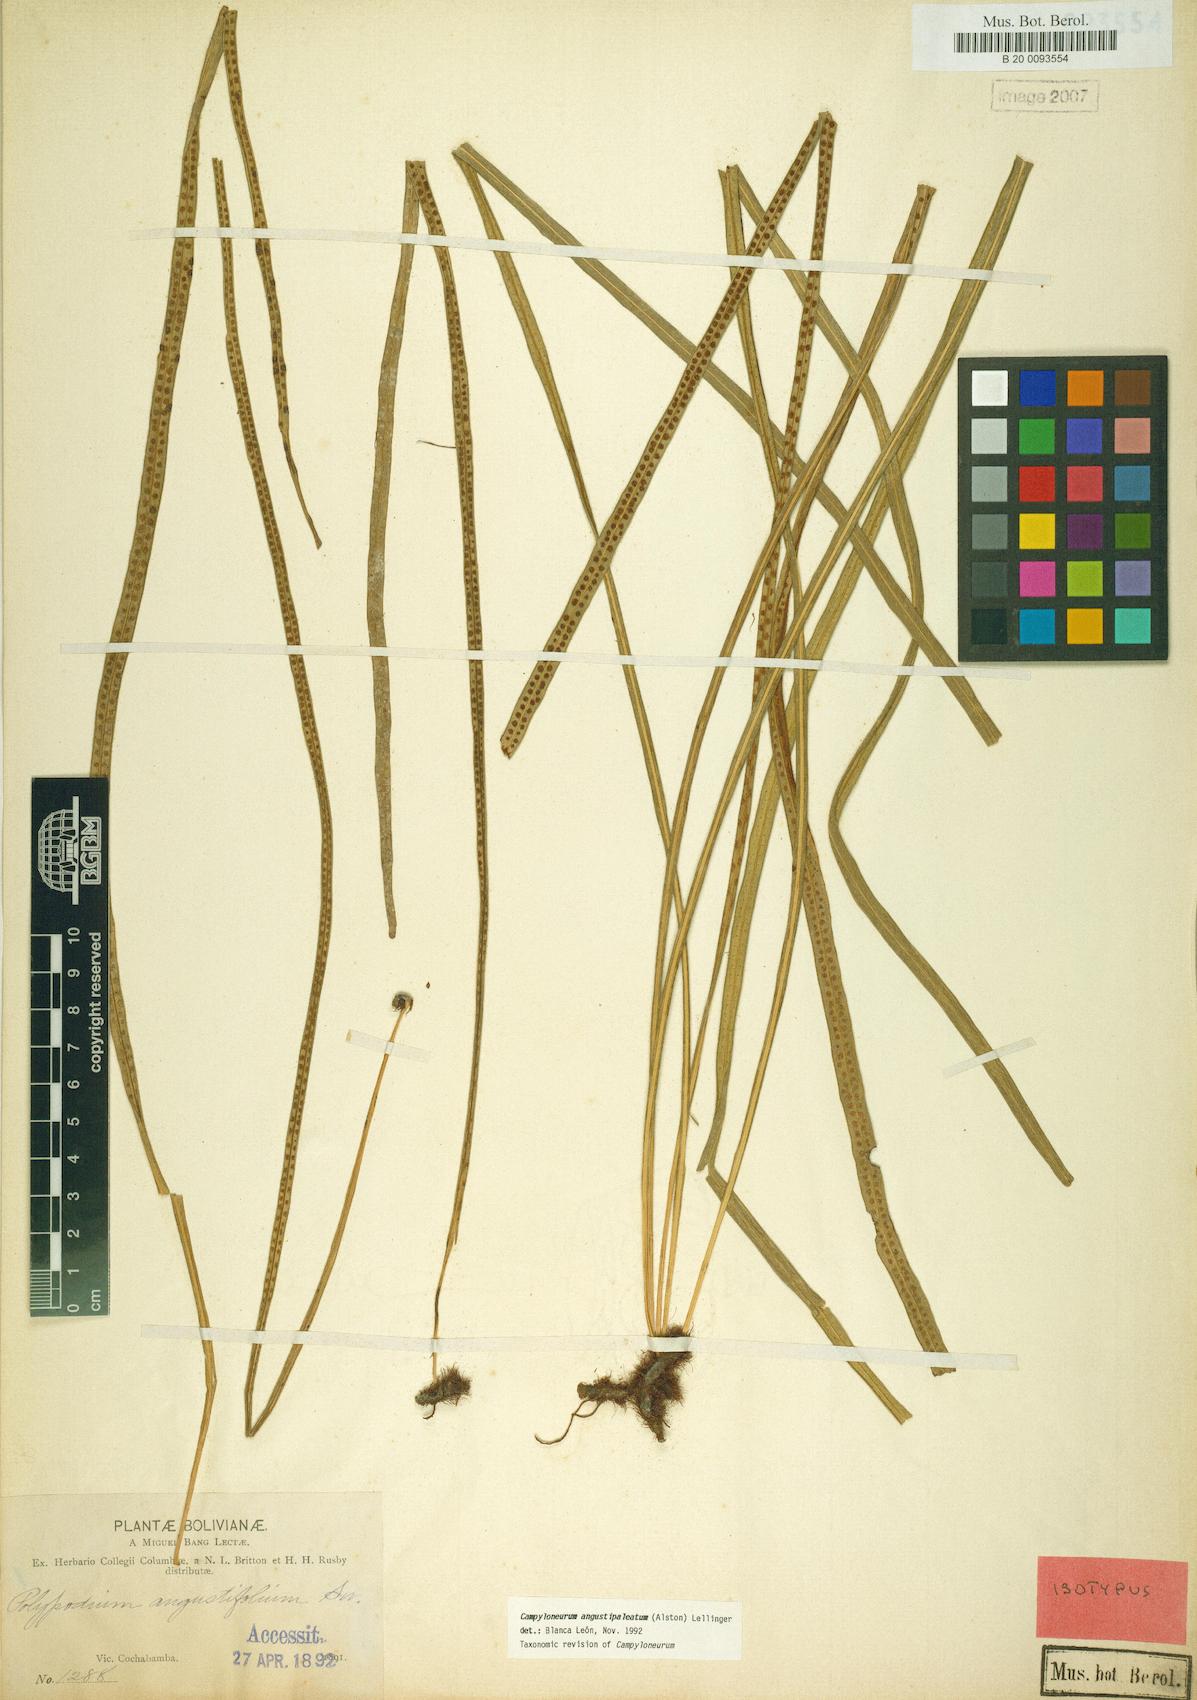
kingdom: Plantae
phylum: Tracheophyta
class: Polypodiopsida
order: Polypodiales
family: Polypodiaceae
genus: Campyloneurum
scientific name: Campyloneurum angustipaleatum
